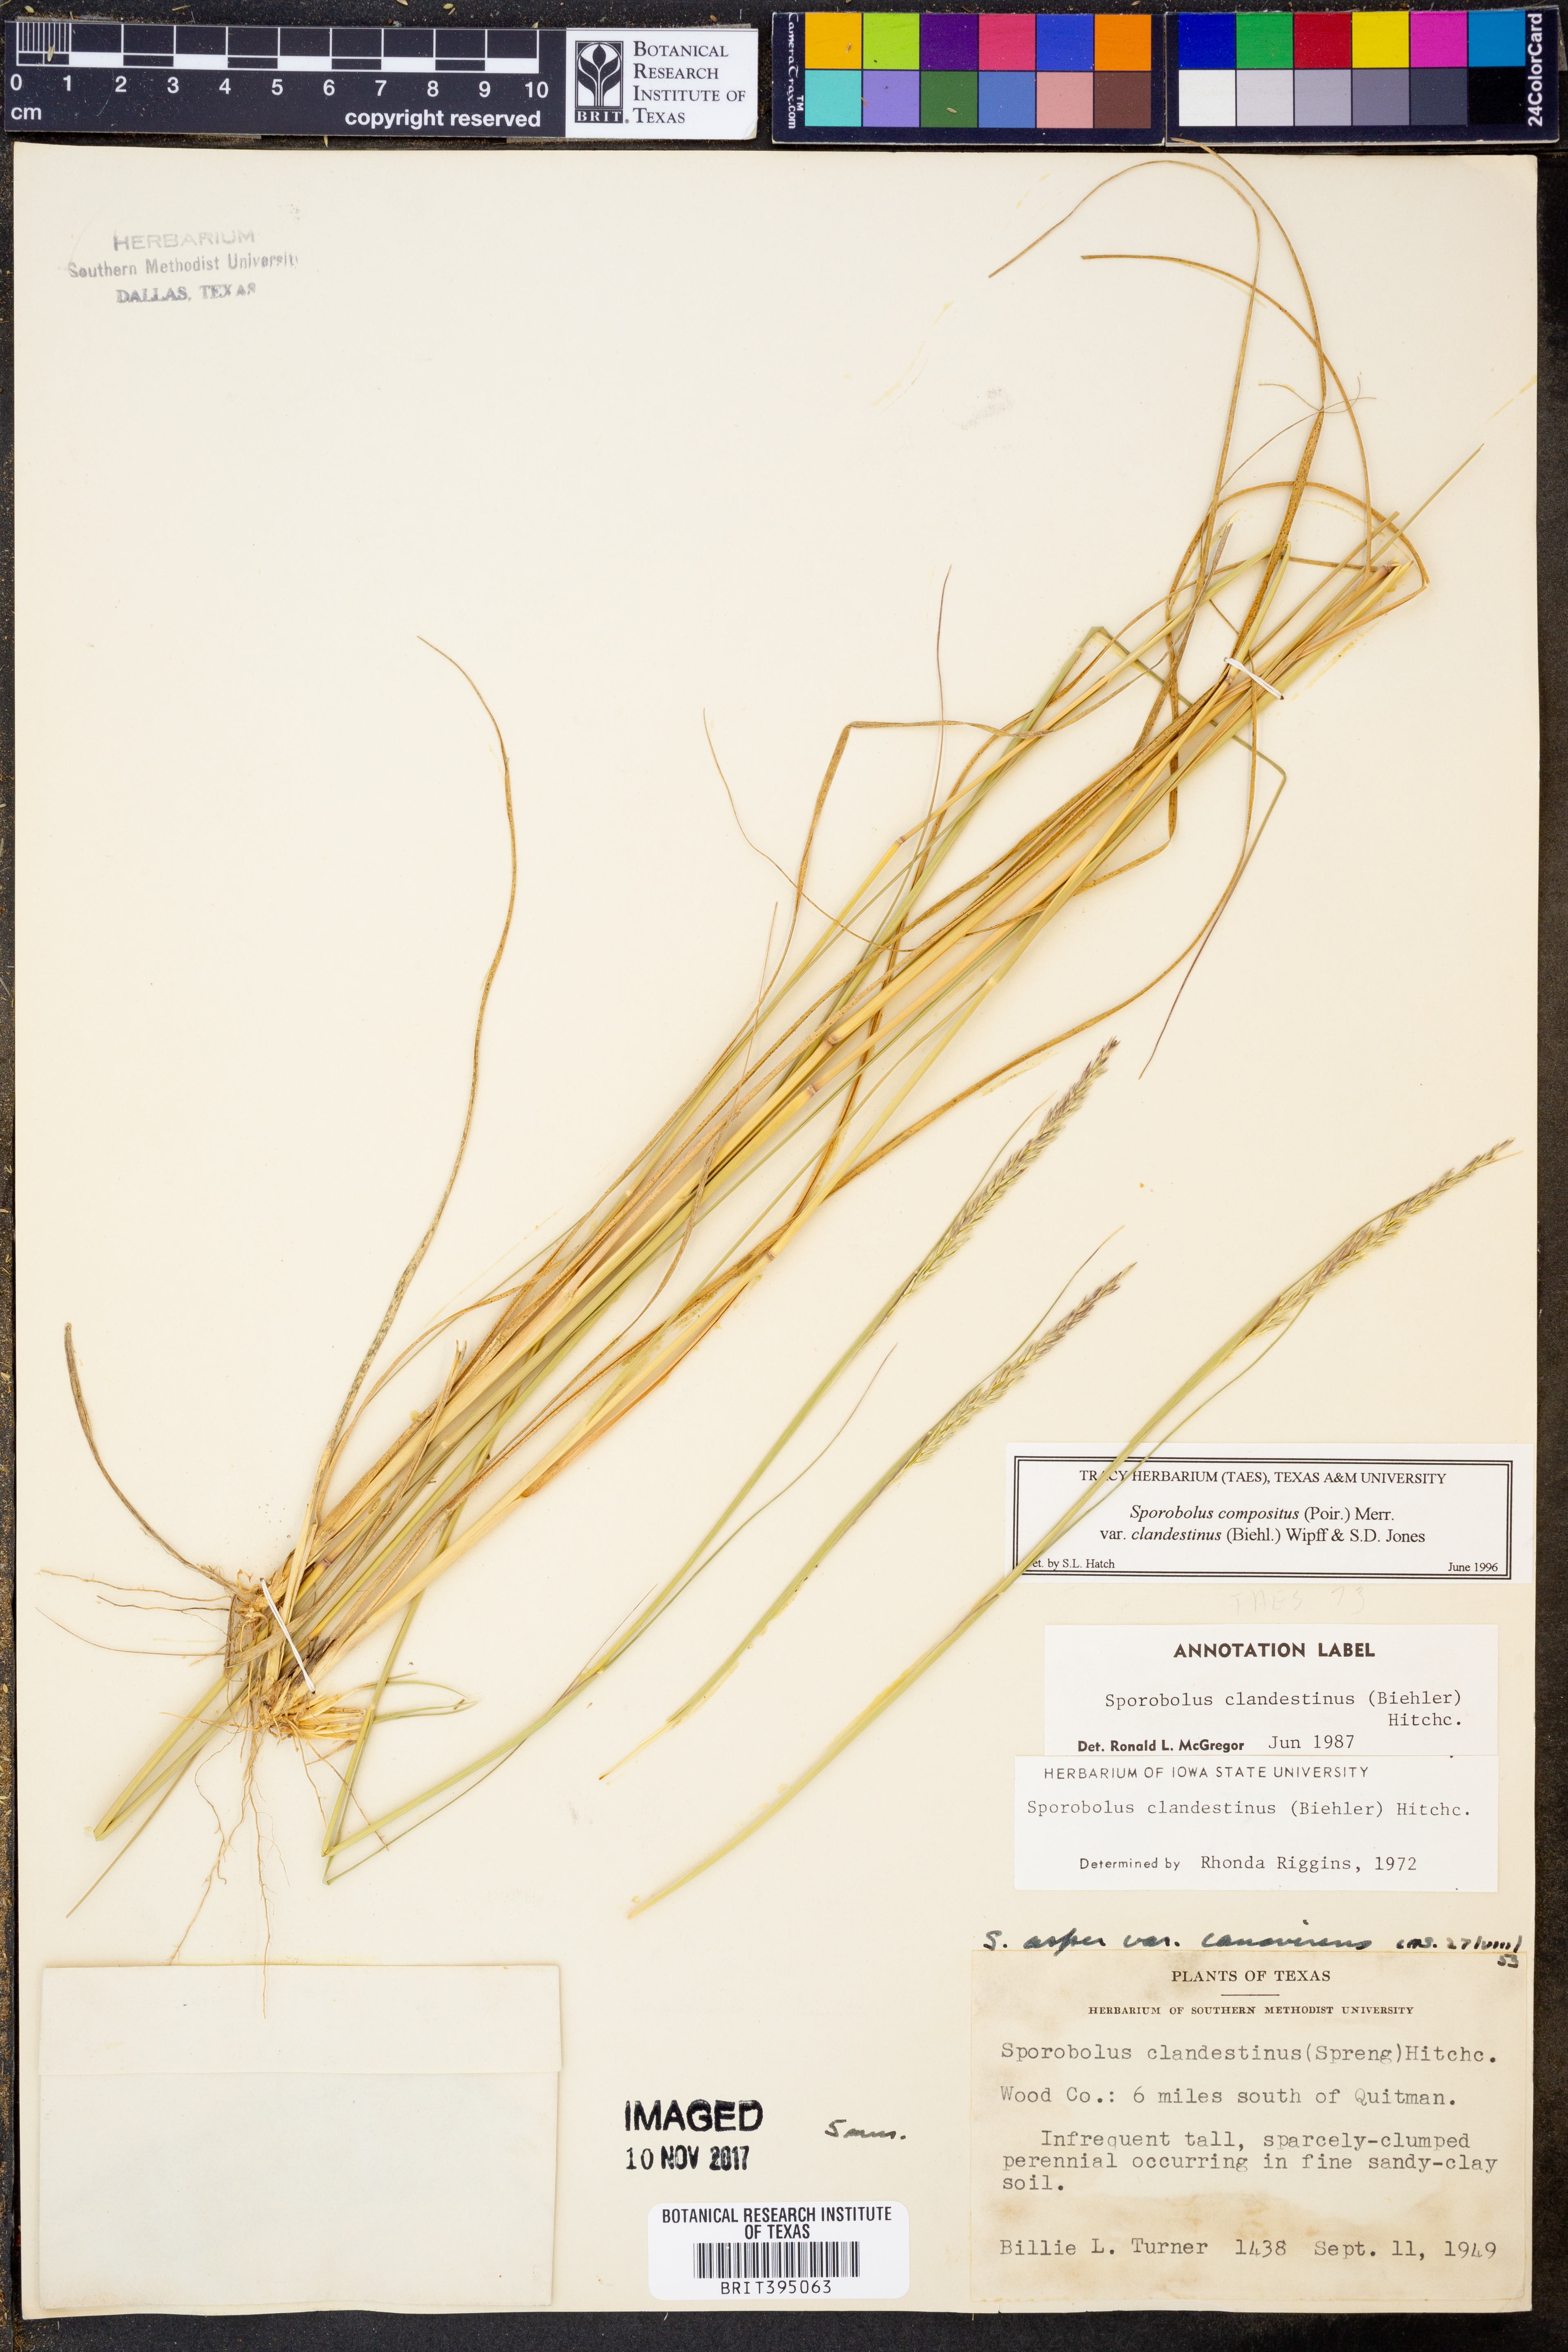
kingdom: Plantae
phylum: Tracheophyta
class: Liliopsida
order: Poales
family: Poaceae
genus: Sporobolus
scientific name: Sporobolus clandestinus
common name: Hidden dropseed
